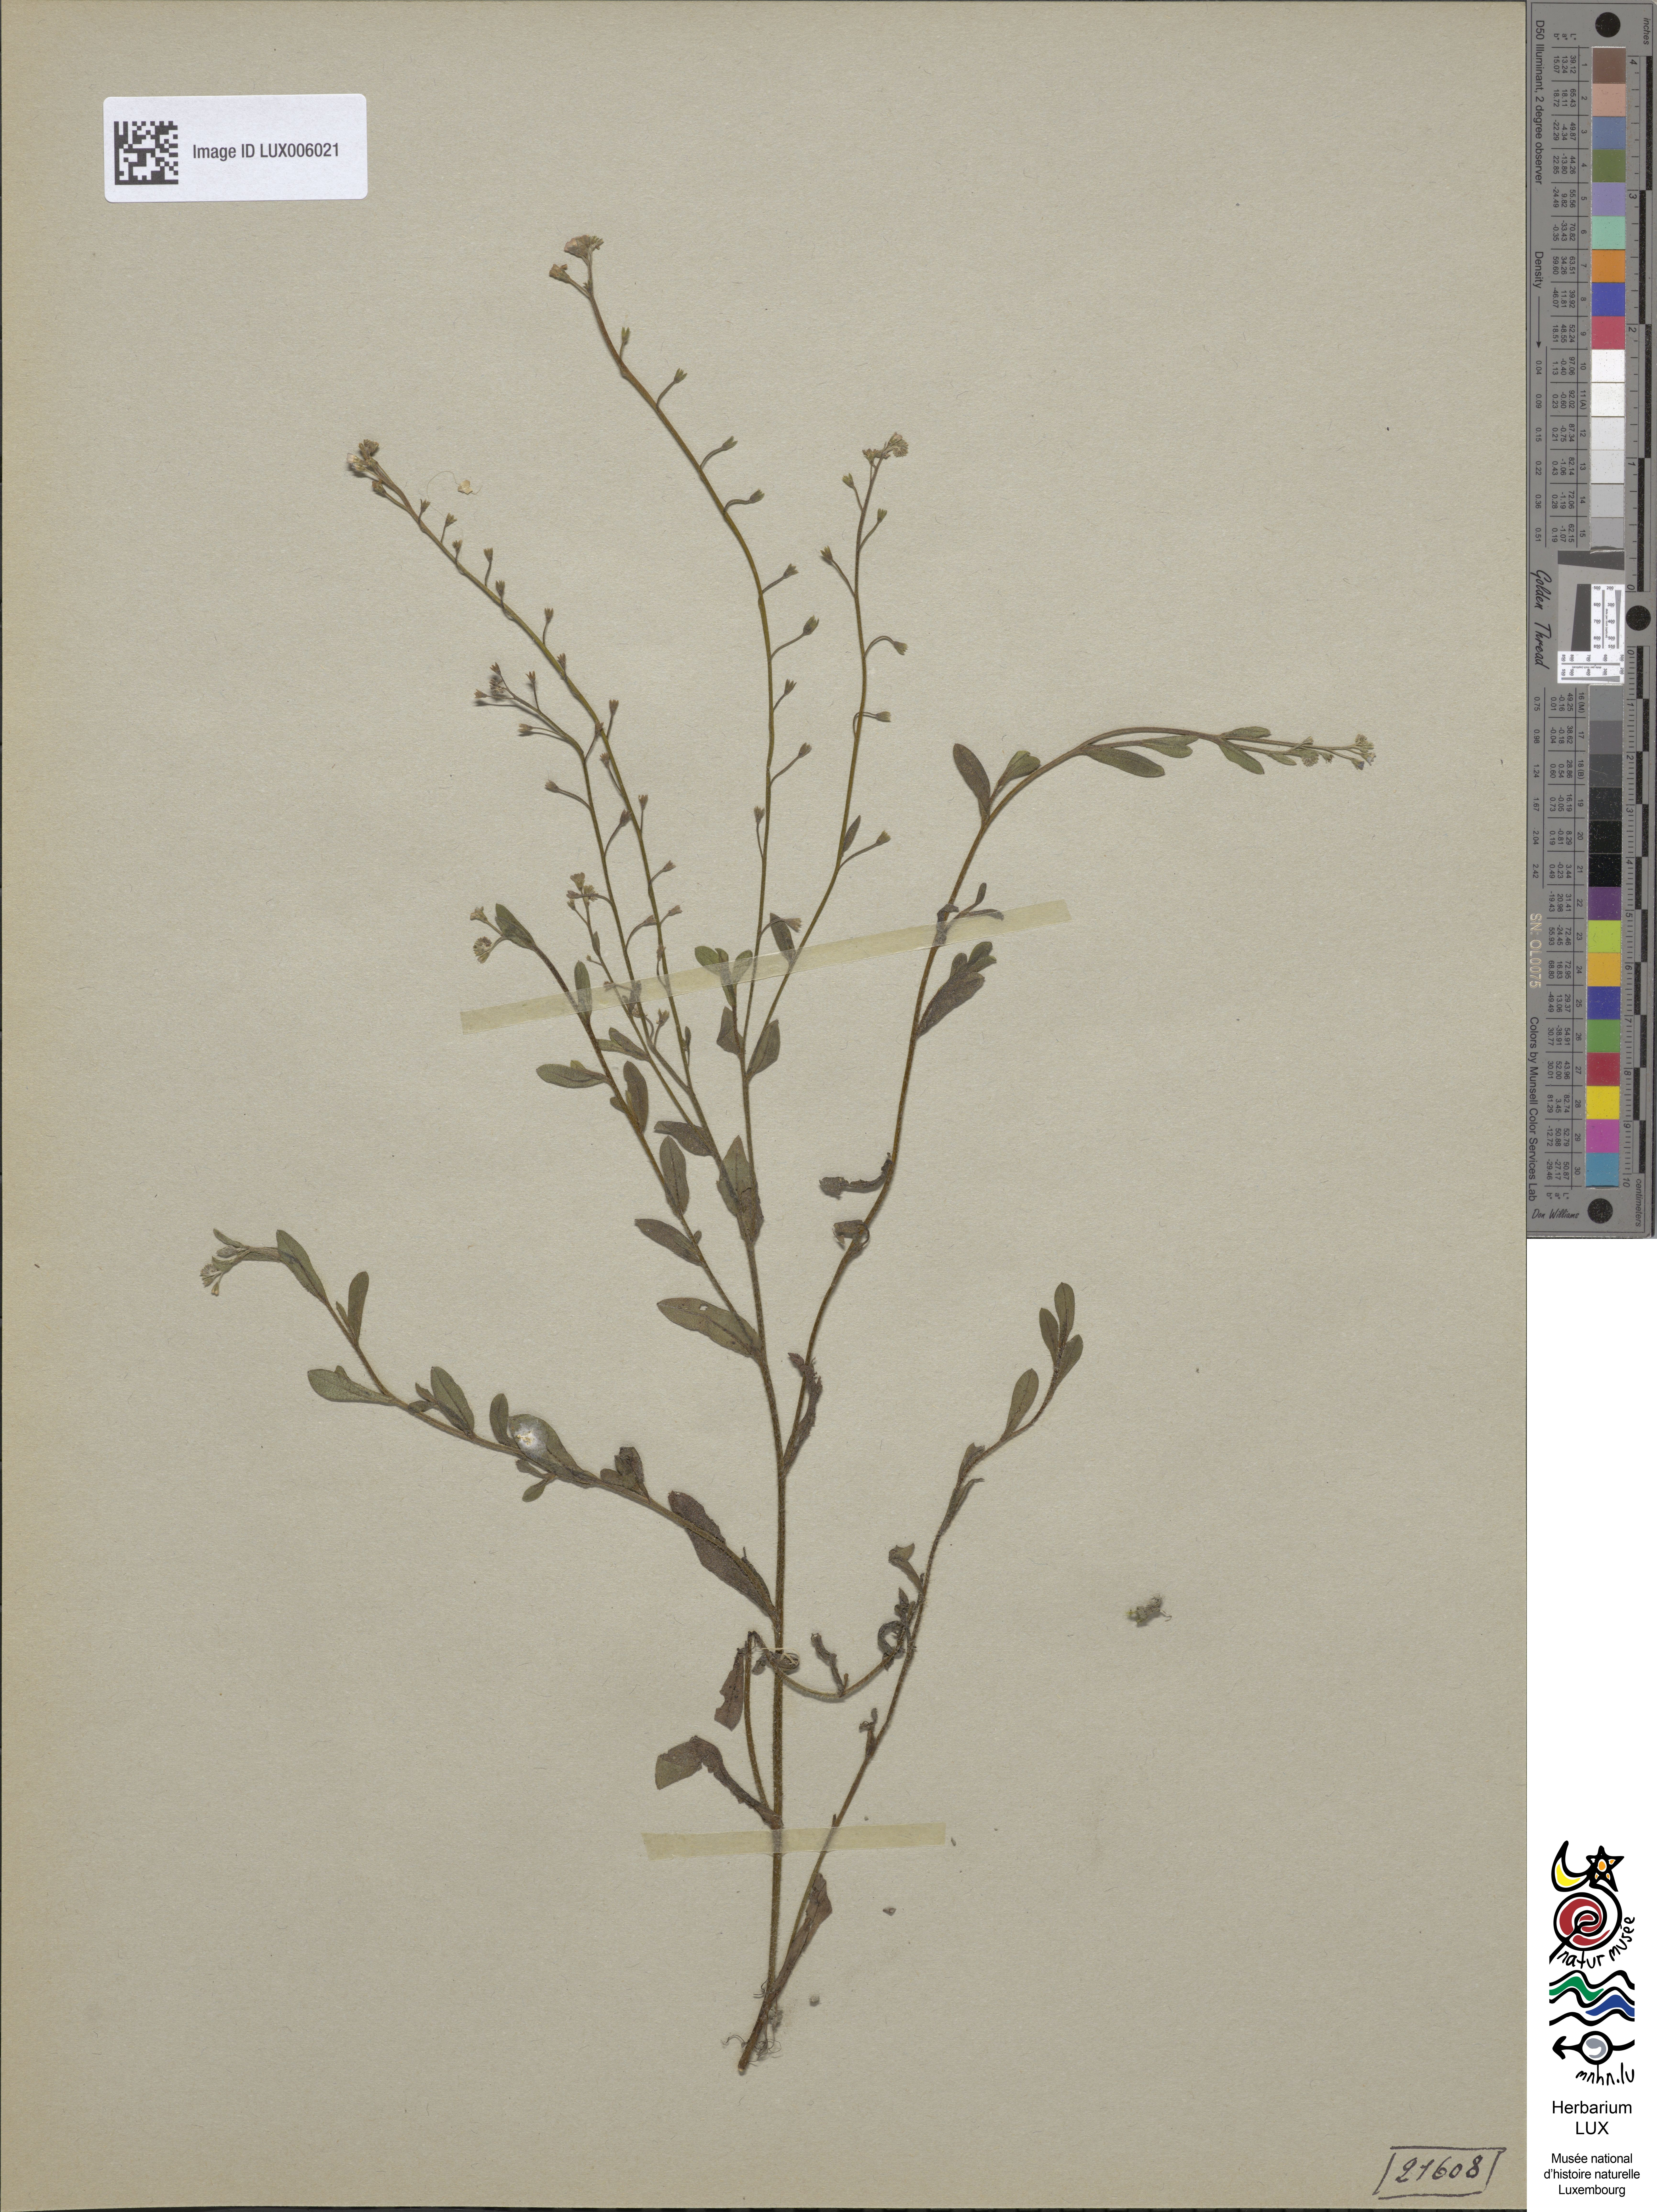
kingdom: Plantae
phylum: Tracheophyta
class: Magnoliopsida
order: Boraginales
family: Boraginaceae
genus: Myosotis
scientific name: Myosotis laxa
